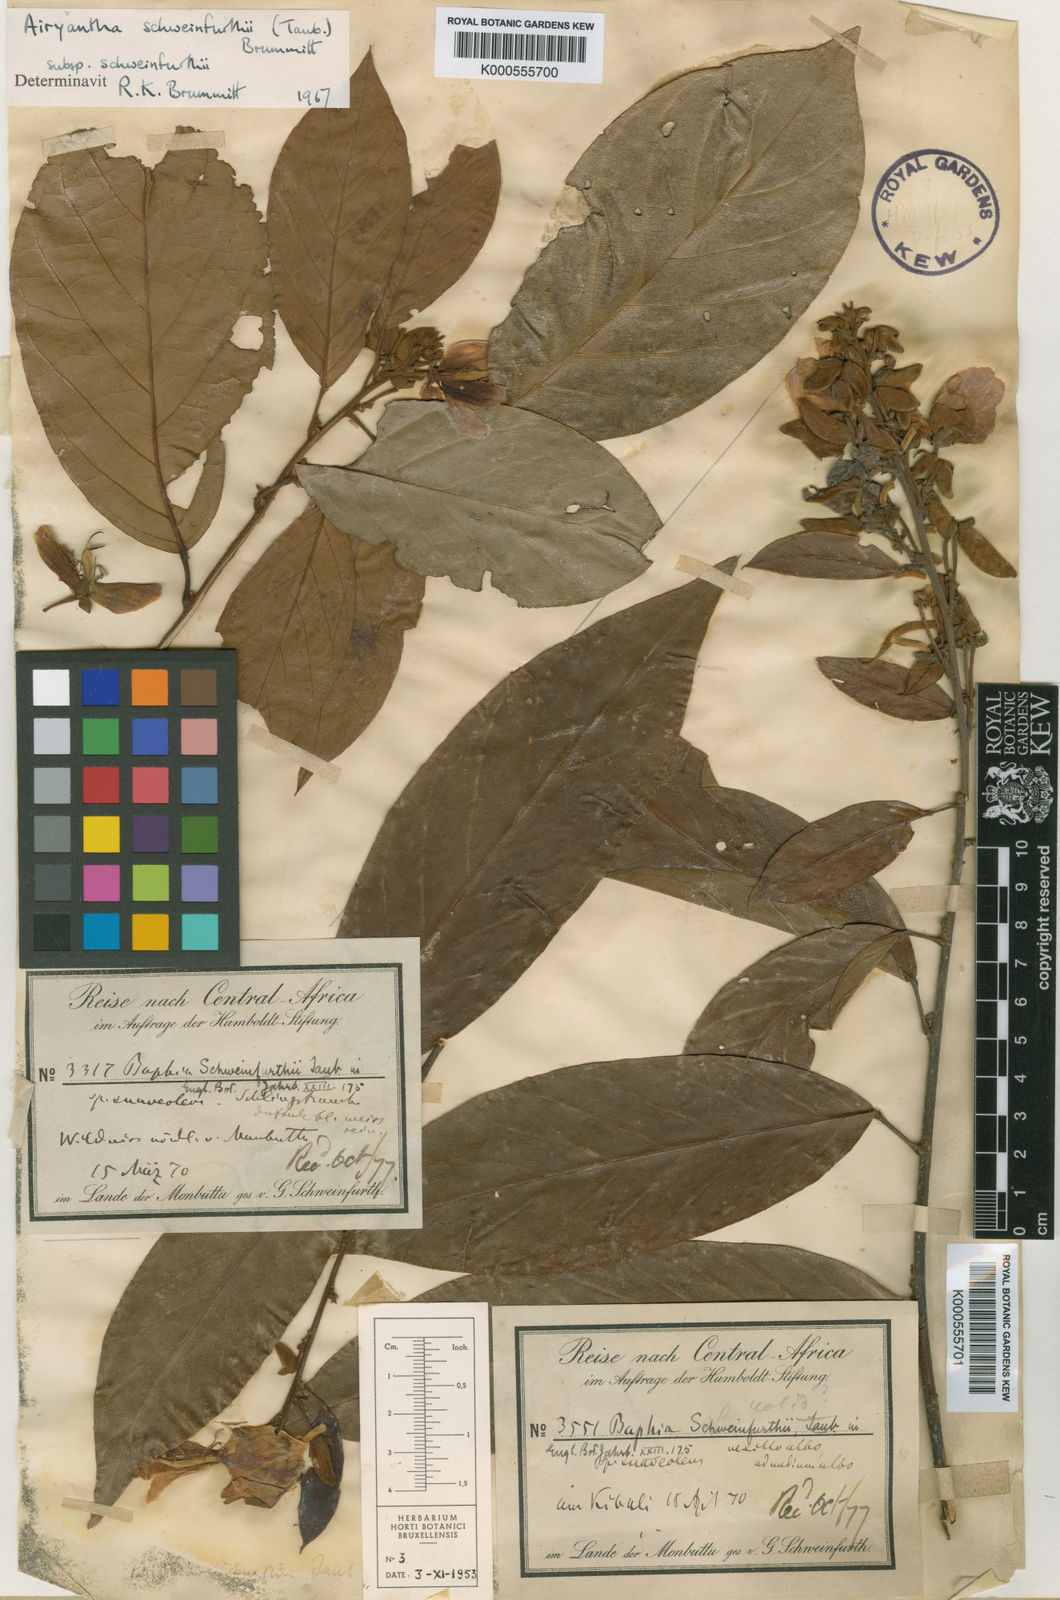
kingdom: Plantae
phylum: Tracheophyta
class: Magnoliopsida
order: Fabales
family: Fabaceae
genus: Airyantha
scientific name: Airyantha schweinfurthii
